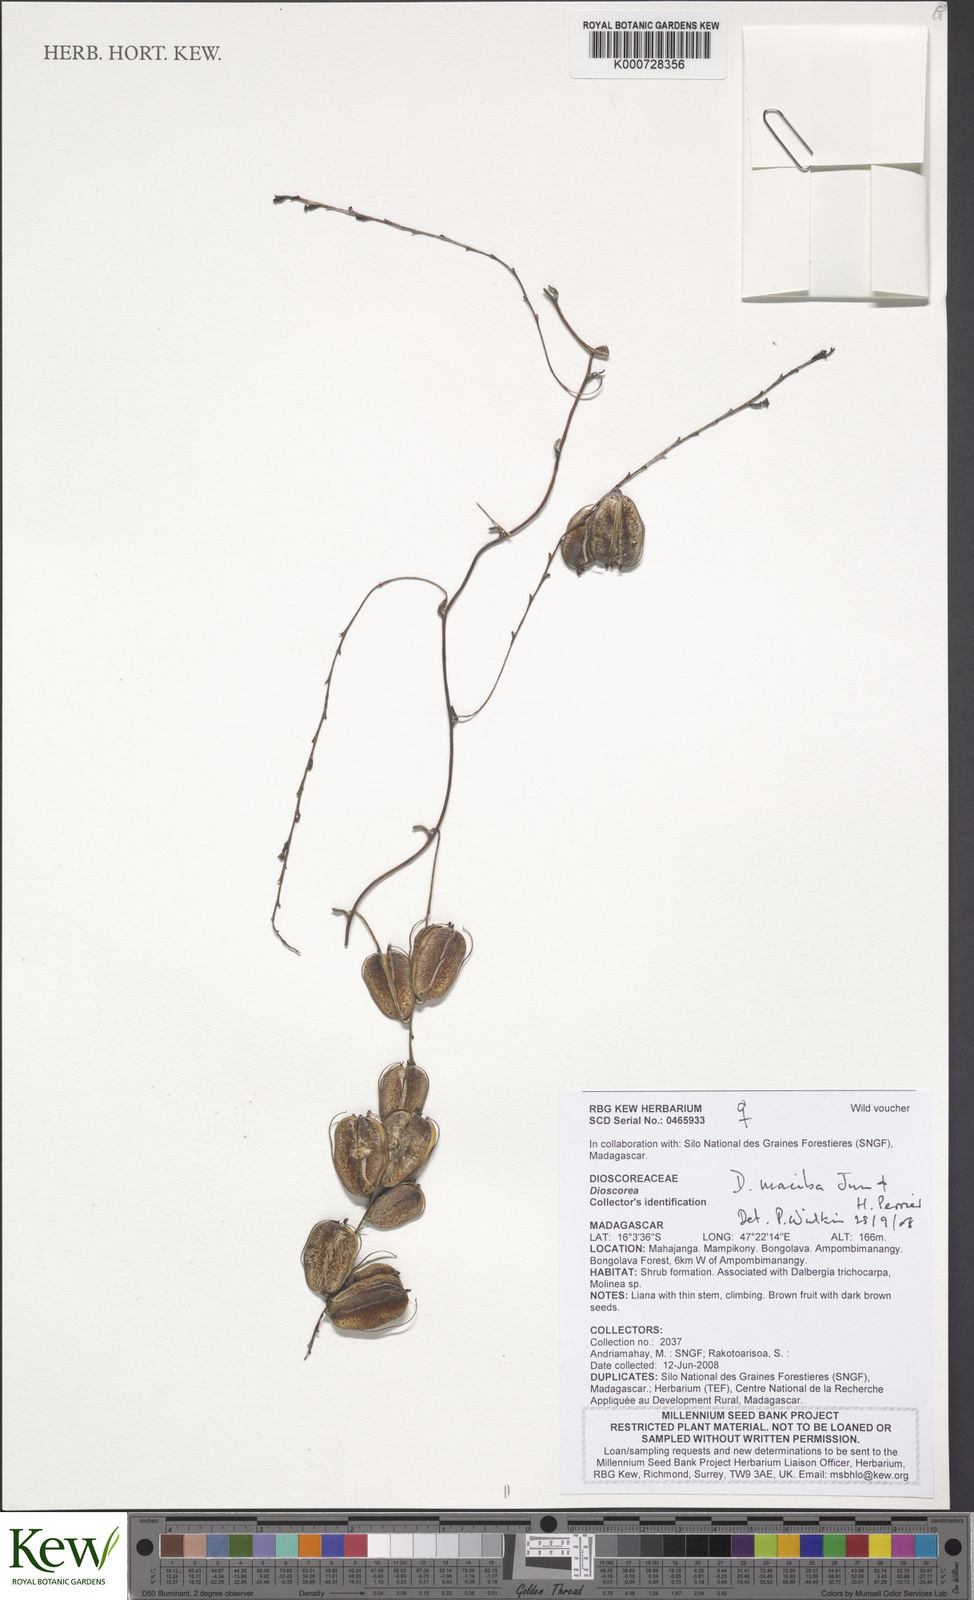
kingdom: Plantae
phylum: Tracheophyta
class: Liliopsida
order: Dioscoreales
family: Dioscoreaceae
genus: Dioscorea
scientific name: Dioscorea maciba
